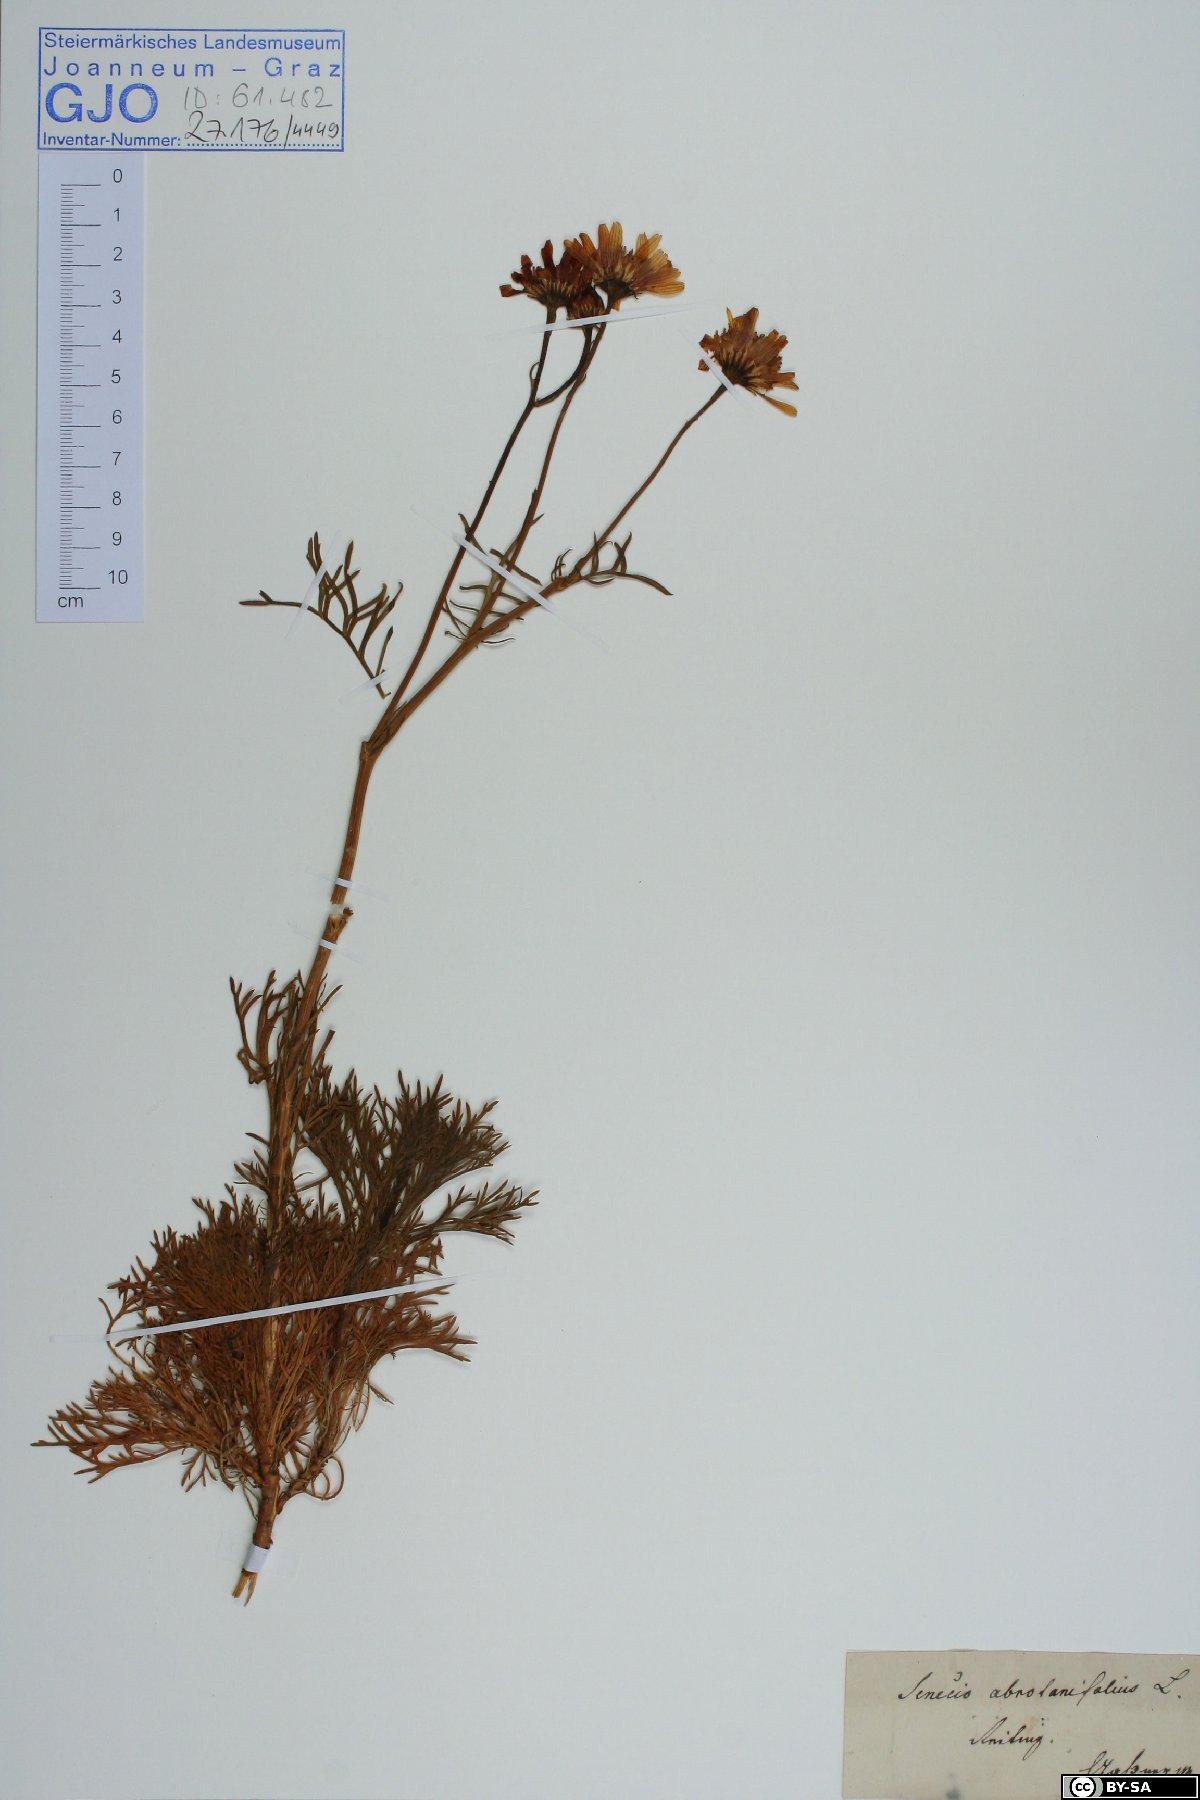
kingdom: Plantae
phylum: Tracheophyta
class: Magnoliopsida
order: Asterales
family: Asteraceae
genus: Jacobaea
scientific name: Jacobaea abrotanifolia
